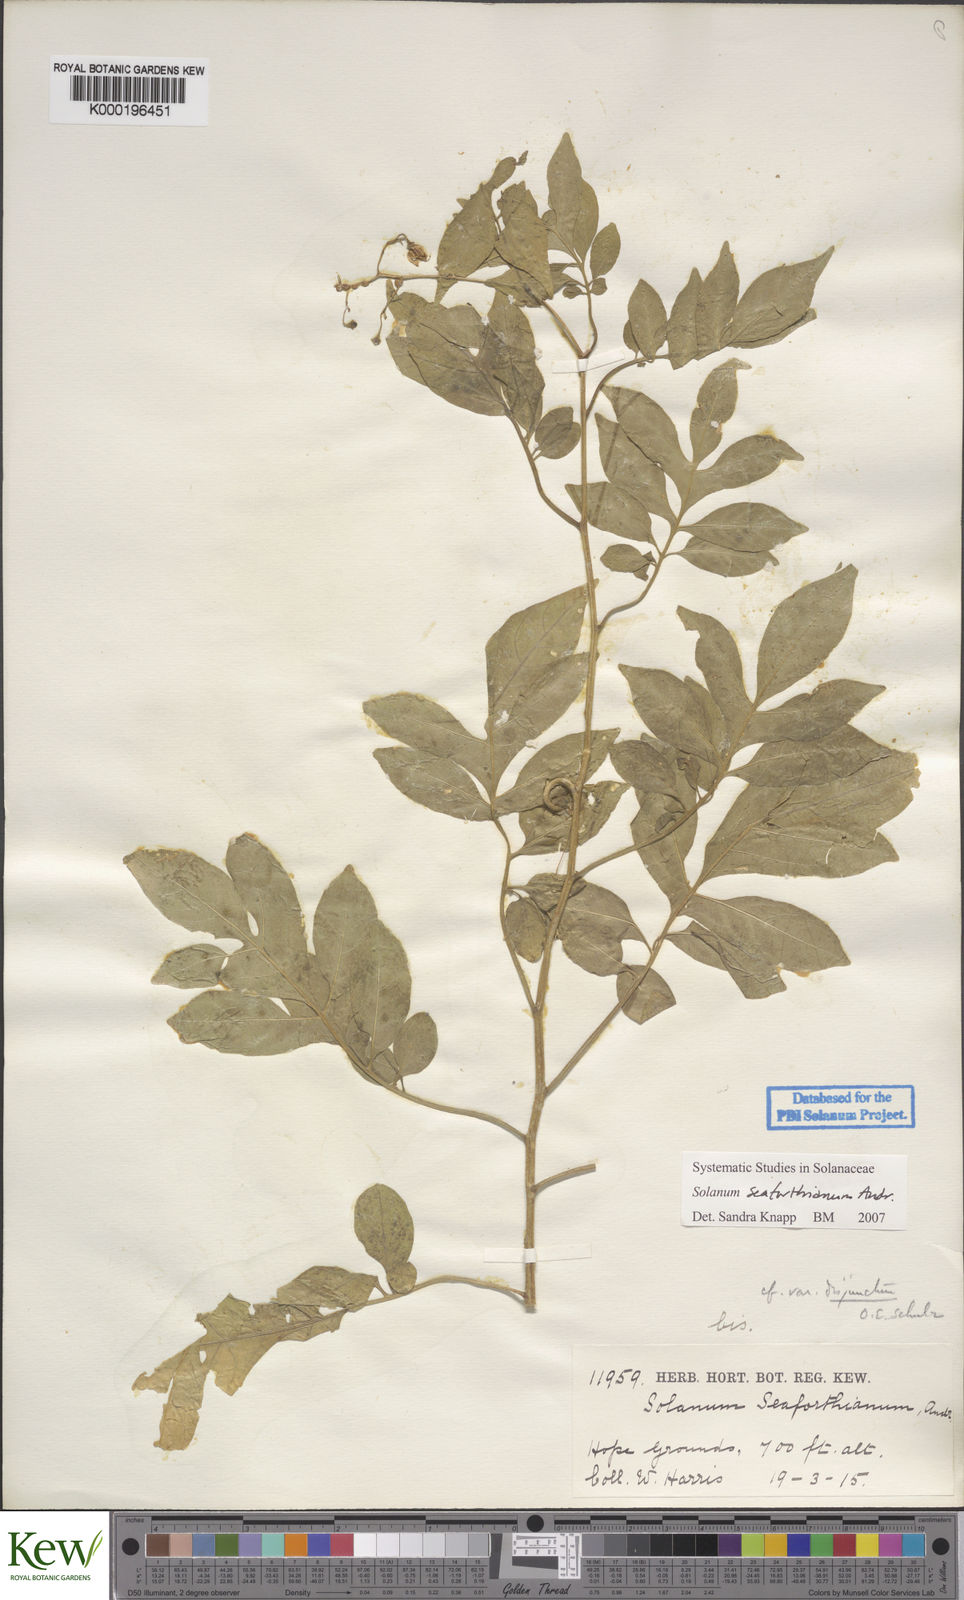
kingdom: Plantae
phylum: Tracheophyta
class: Magnoliopsida
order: Solanales
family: Solanaceae
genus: Solanum
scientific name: Solanum seaforthianum
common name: Brazilian nightshade
